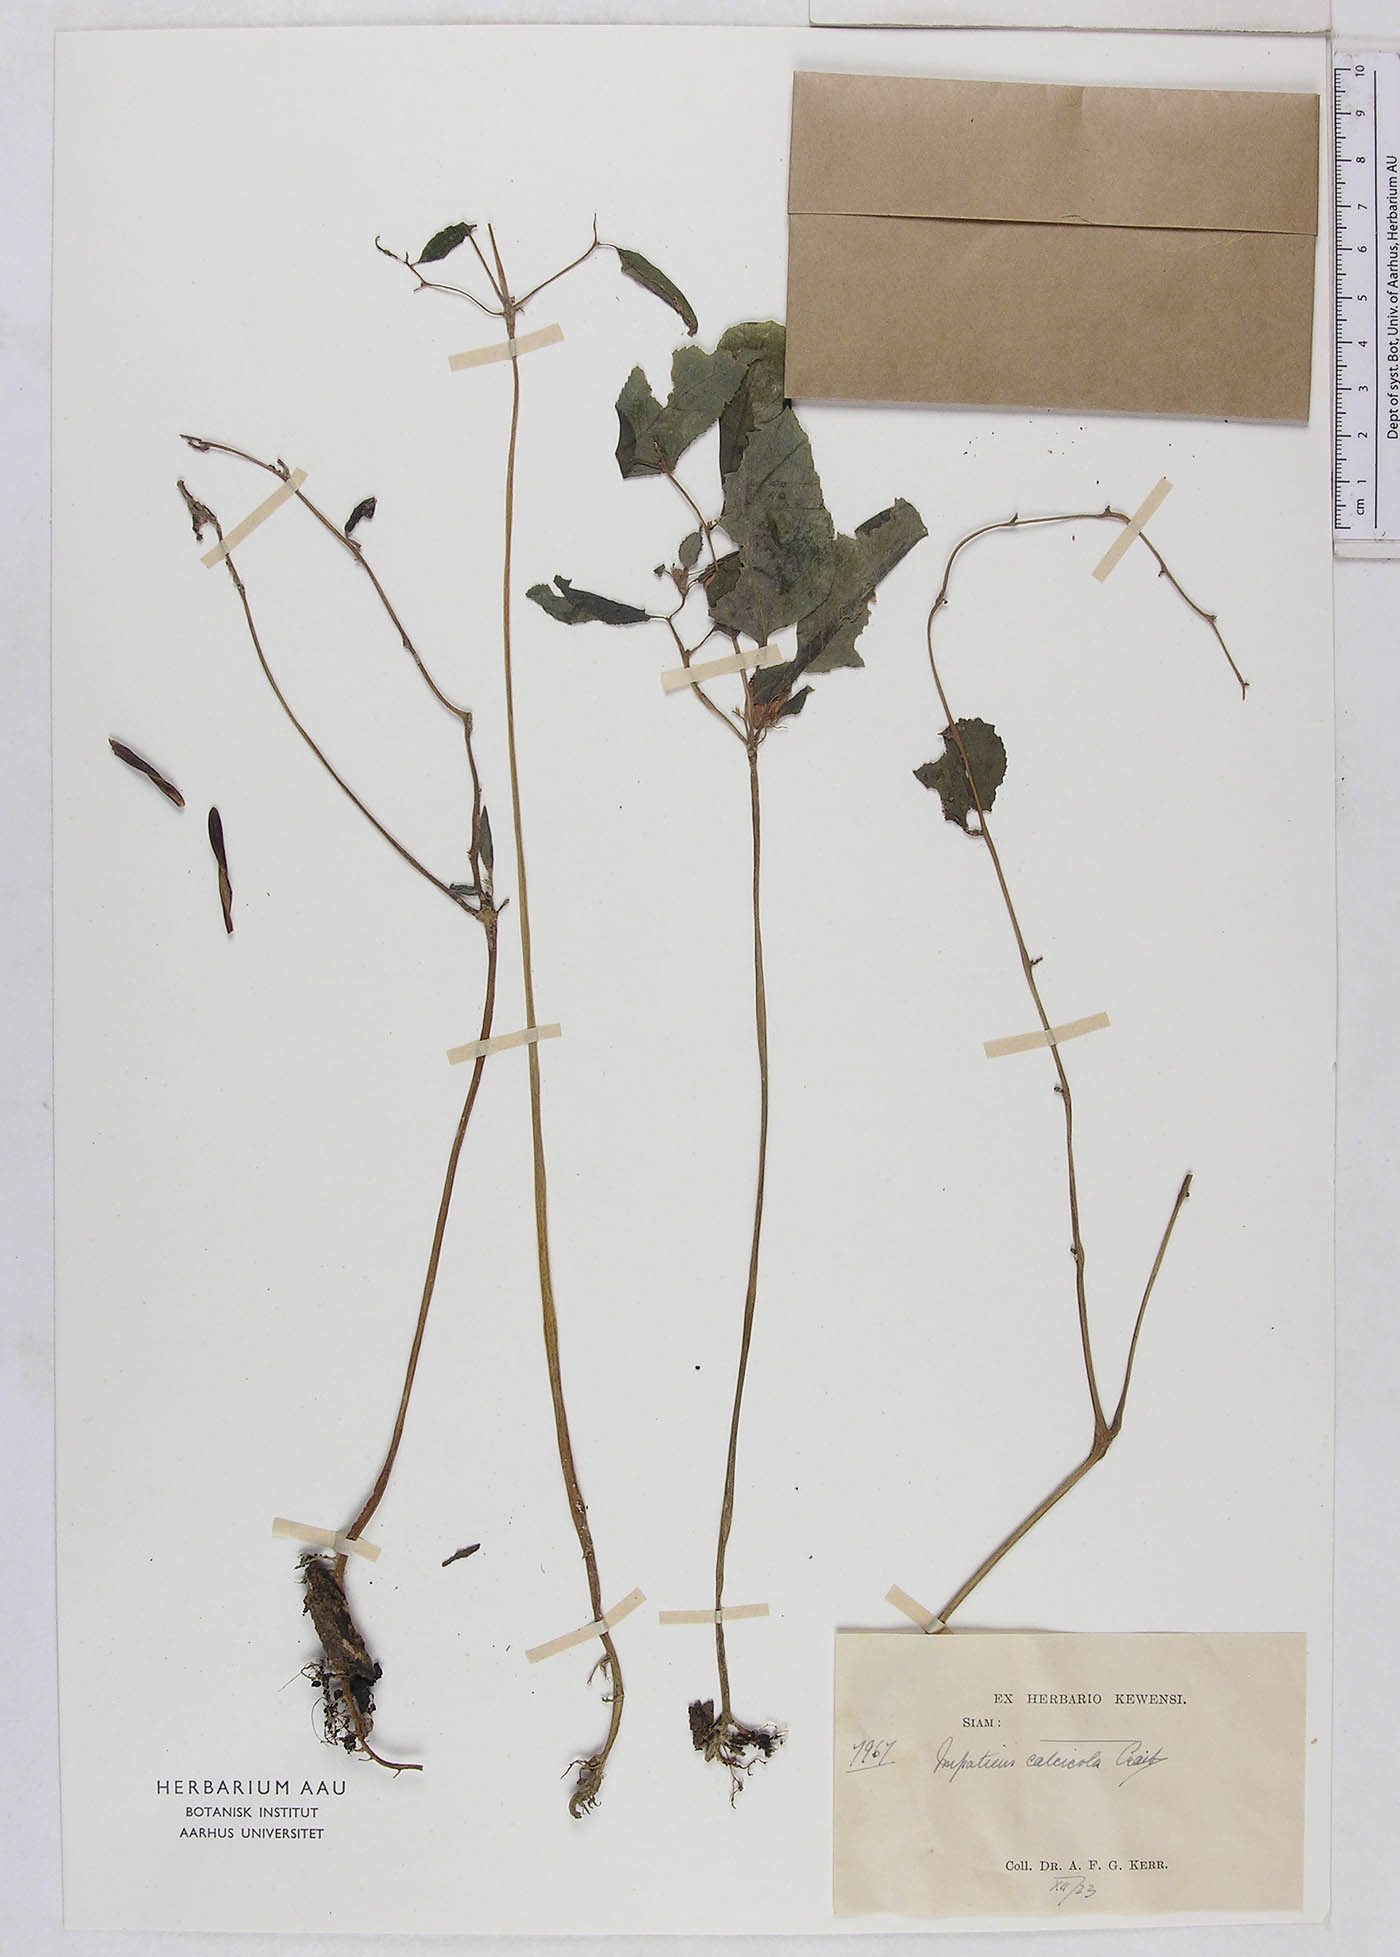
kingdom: Plantae
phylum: Tracheophyta
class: Magnoliopsida
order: Ericales
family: Balsaminaceae
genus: Impatiens
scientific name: Impatiens vaughanii
